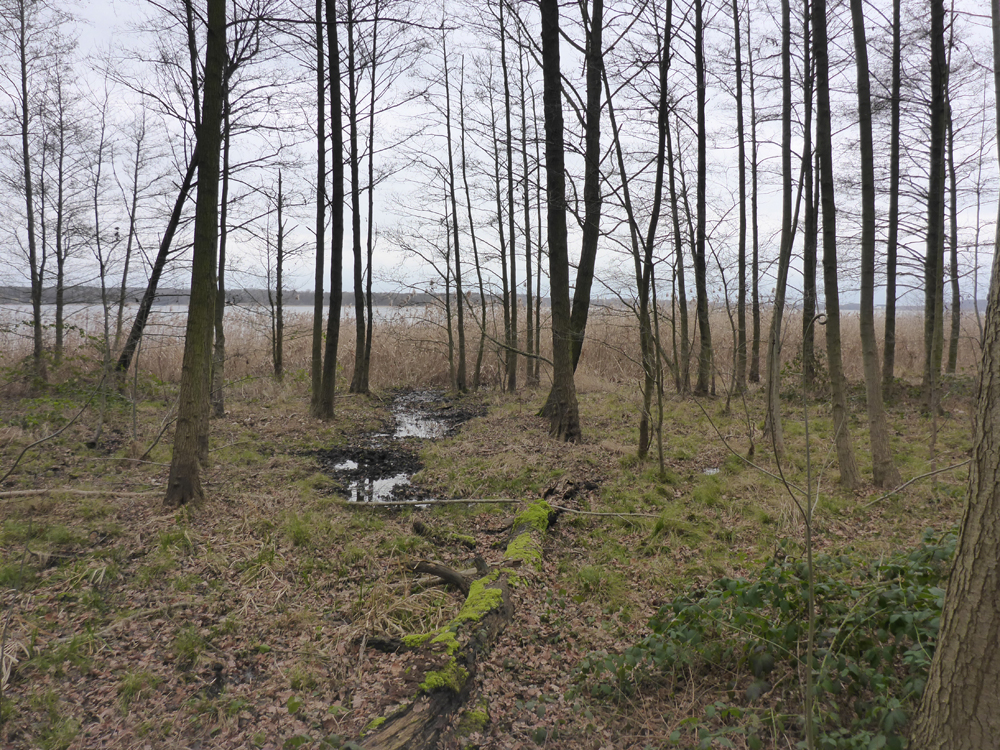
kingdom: Plantae
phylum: Tracheophyta
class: Magnoliopsida
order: Fagales
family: Betulaceae
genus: Alnus
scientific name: Alnus glutinosa
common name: Black alder
